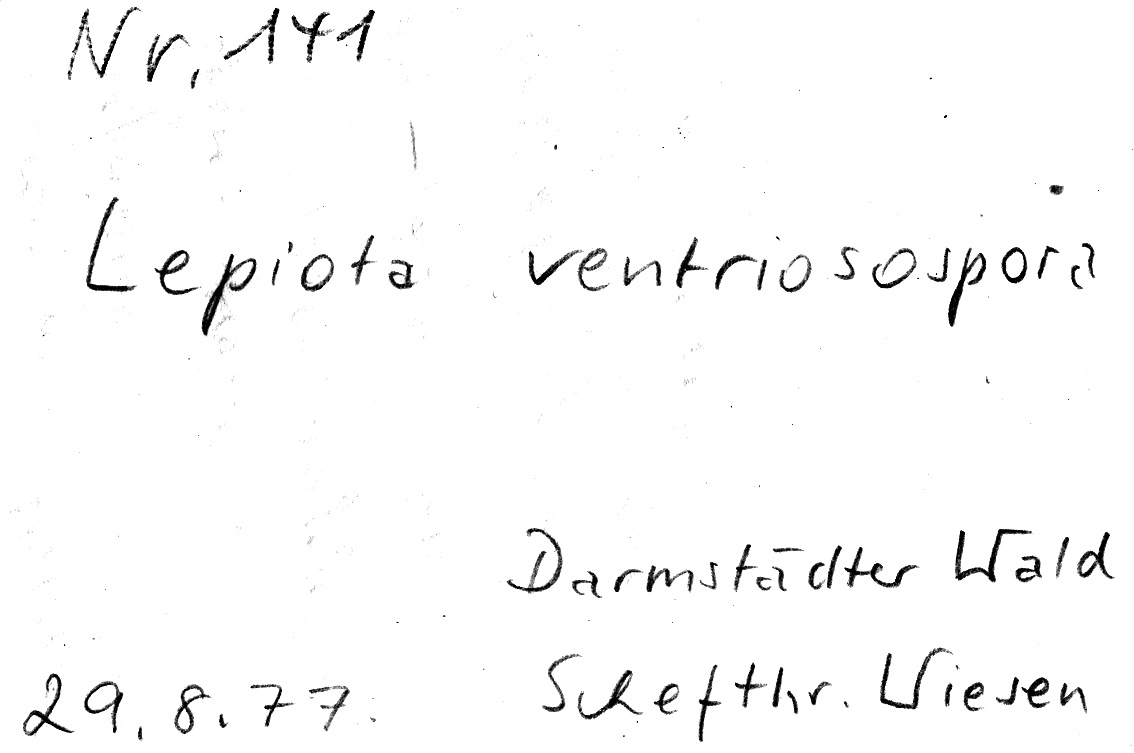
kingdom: Fungi
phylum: Basidiomycota
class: Agaricomycetes
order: Agaricales
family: Agaricaceae
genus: Lepiota
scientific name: Lepiota magnispora
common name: Yellowfoot dapperling
